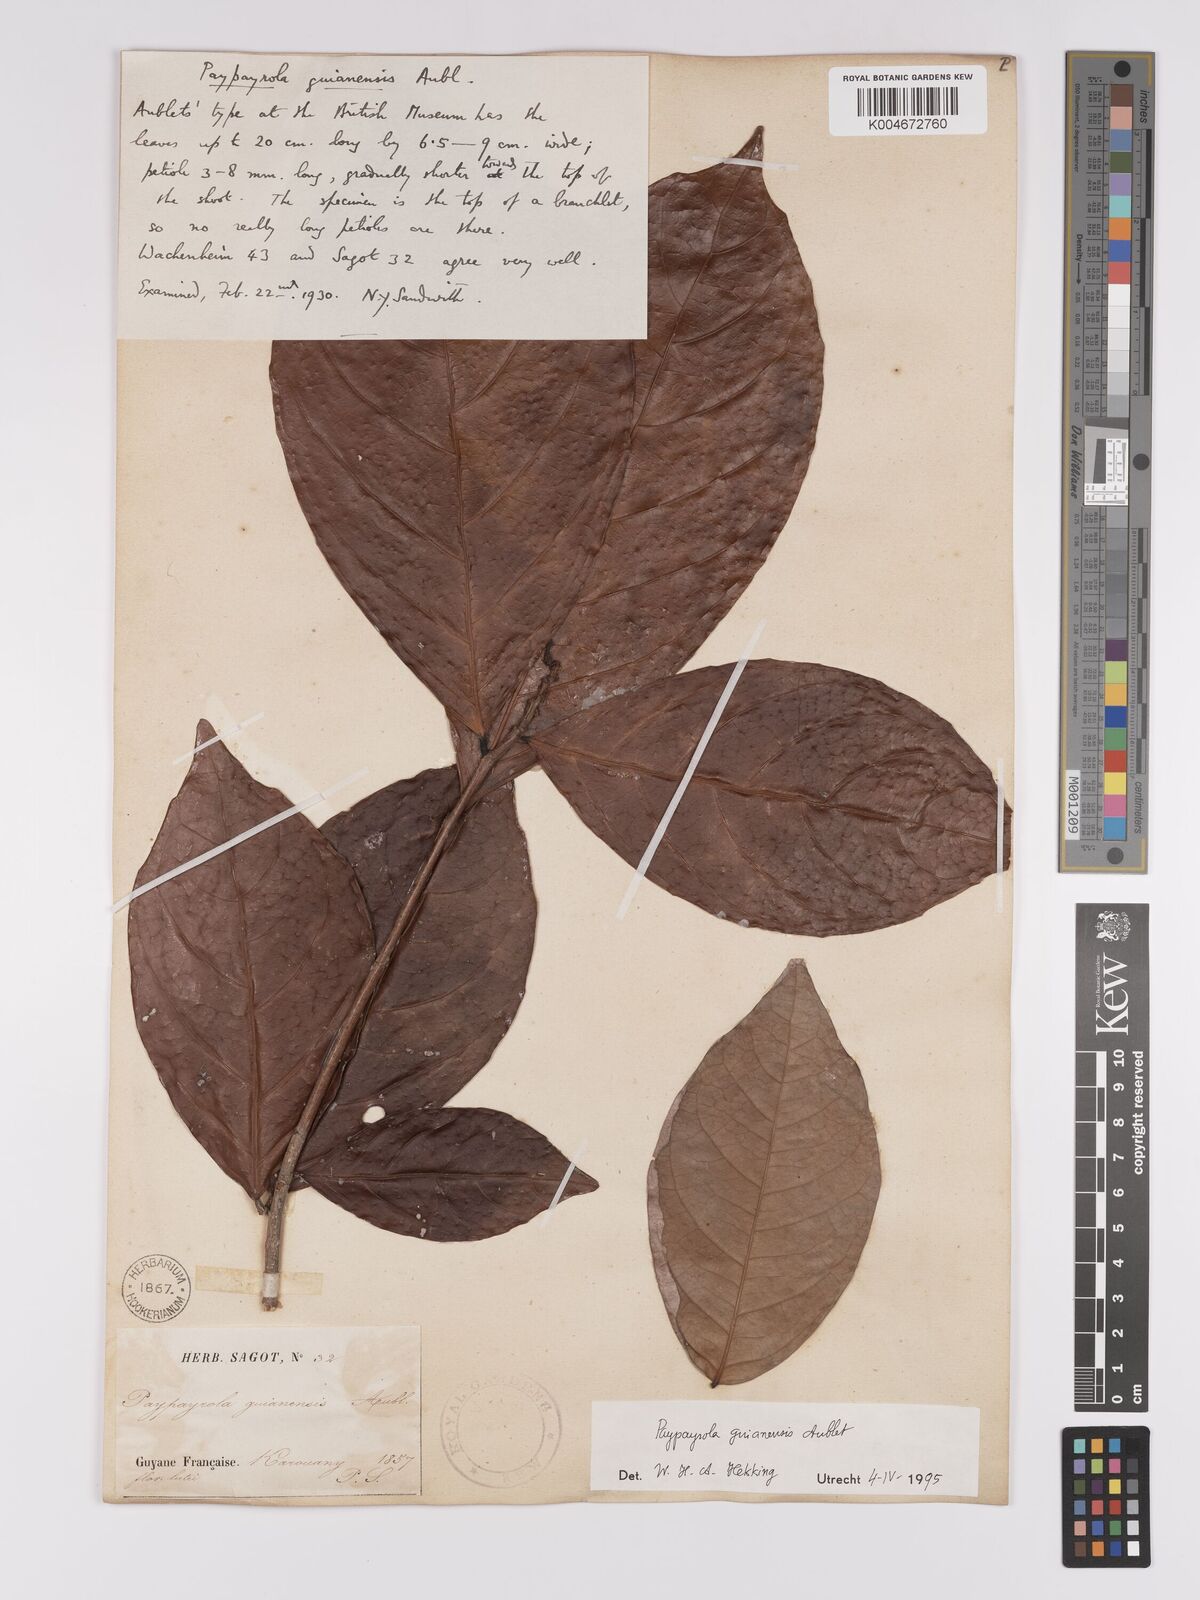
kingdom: Plantae
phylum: Tracheophyta
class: Magnoliopsida
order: Malpighiales
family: Violaceae
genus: Paypayrola
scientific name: Paypayrola guianensis
